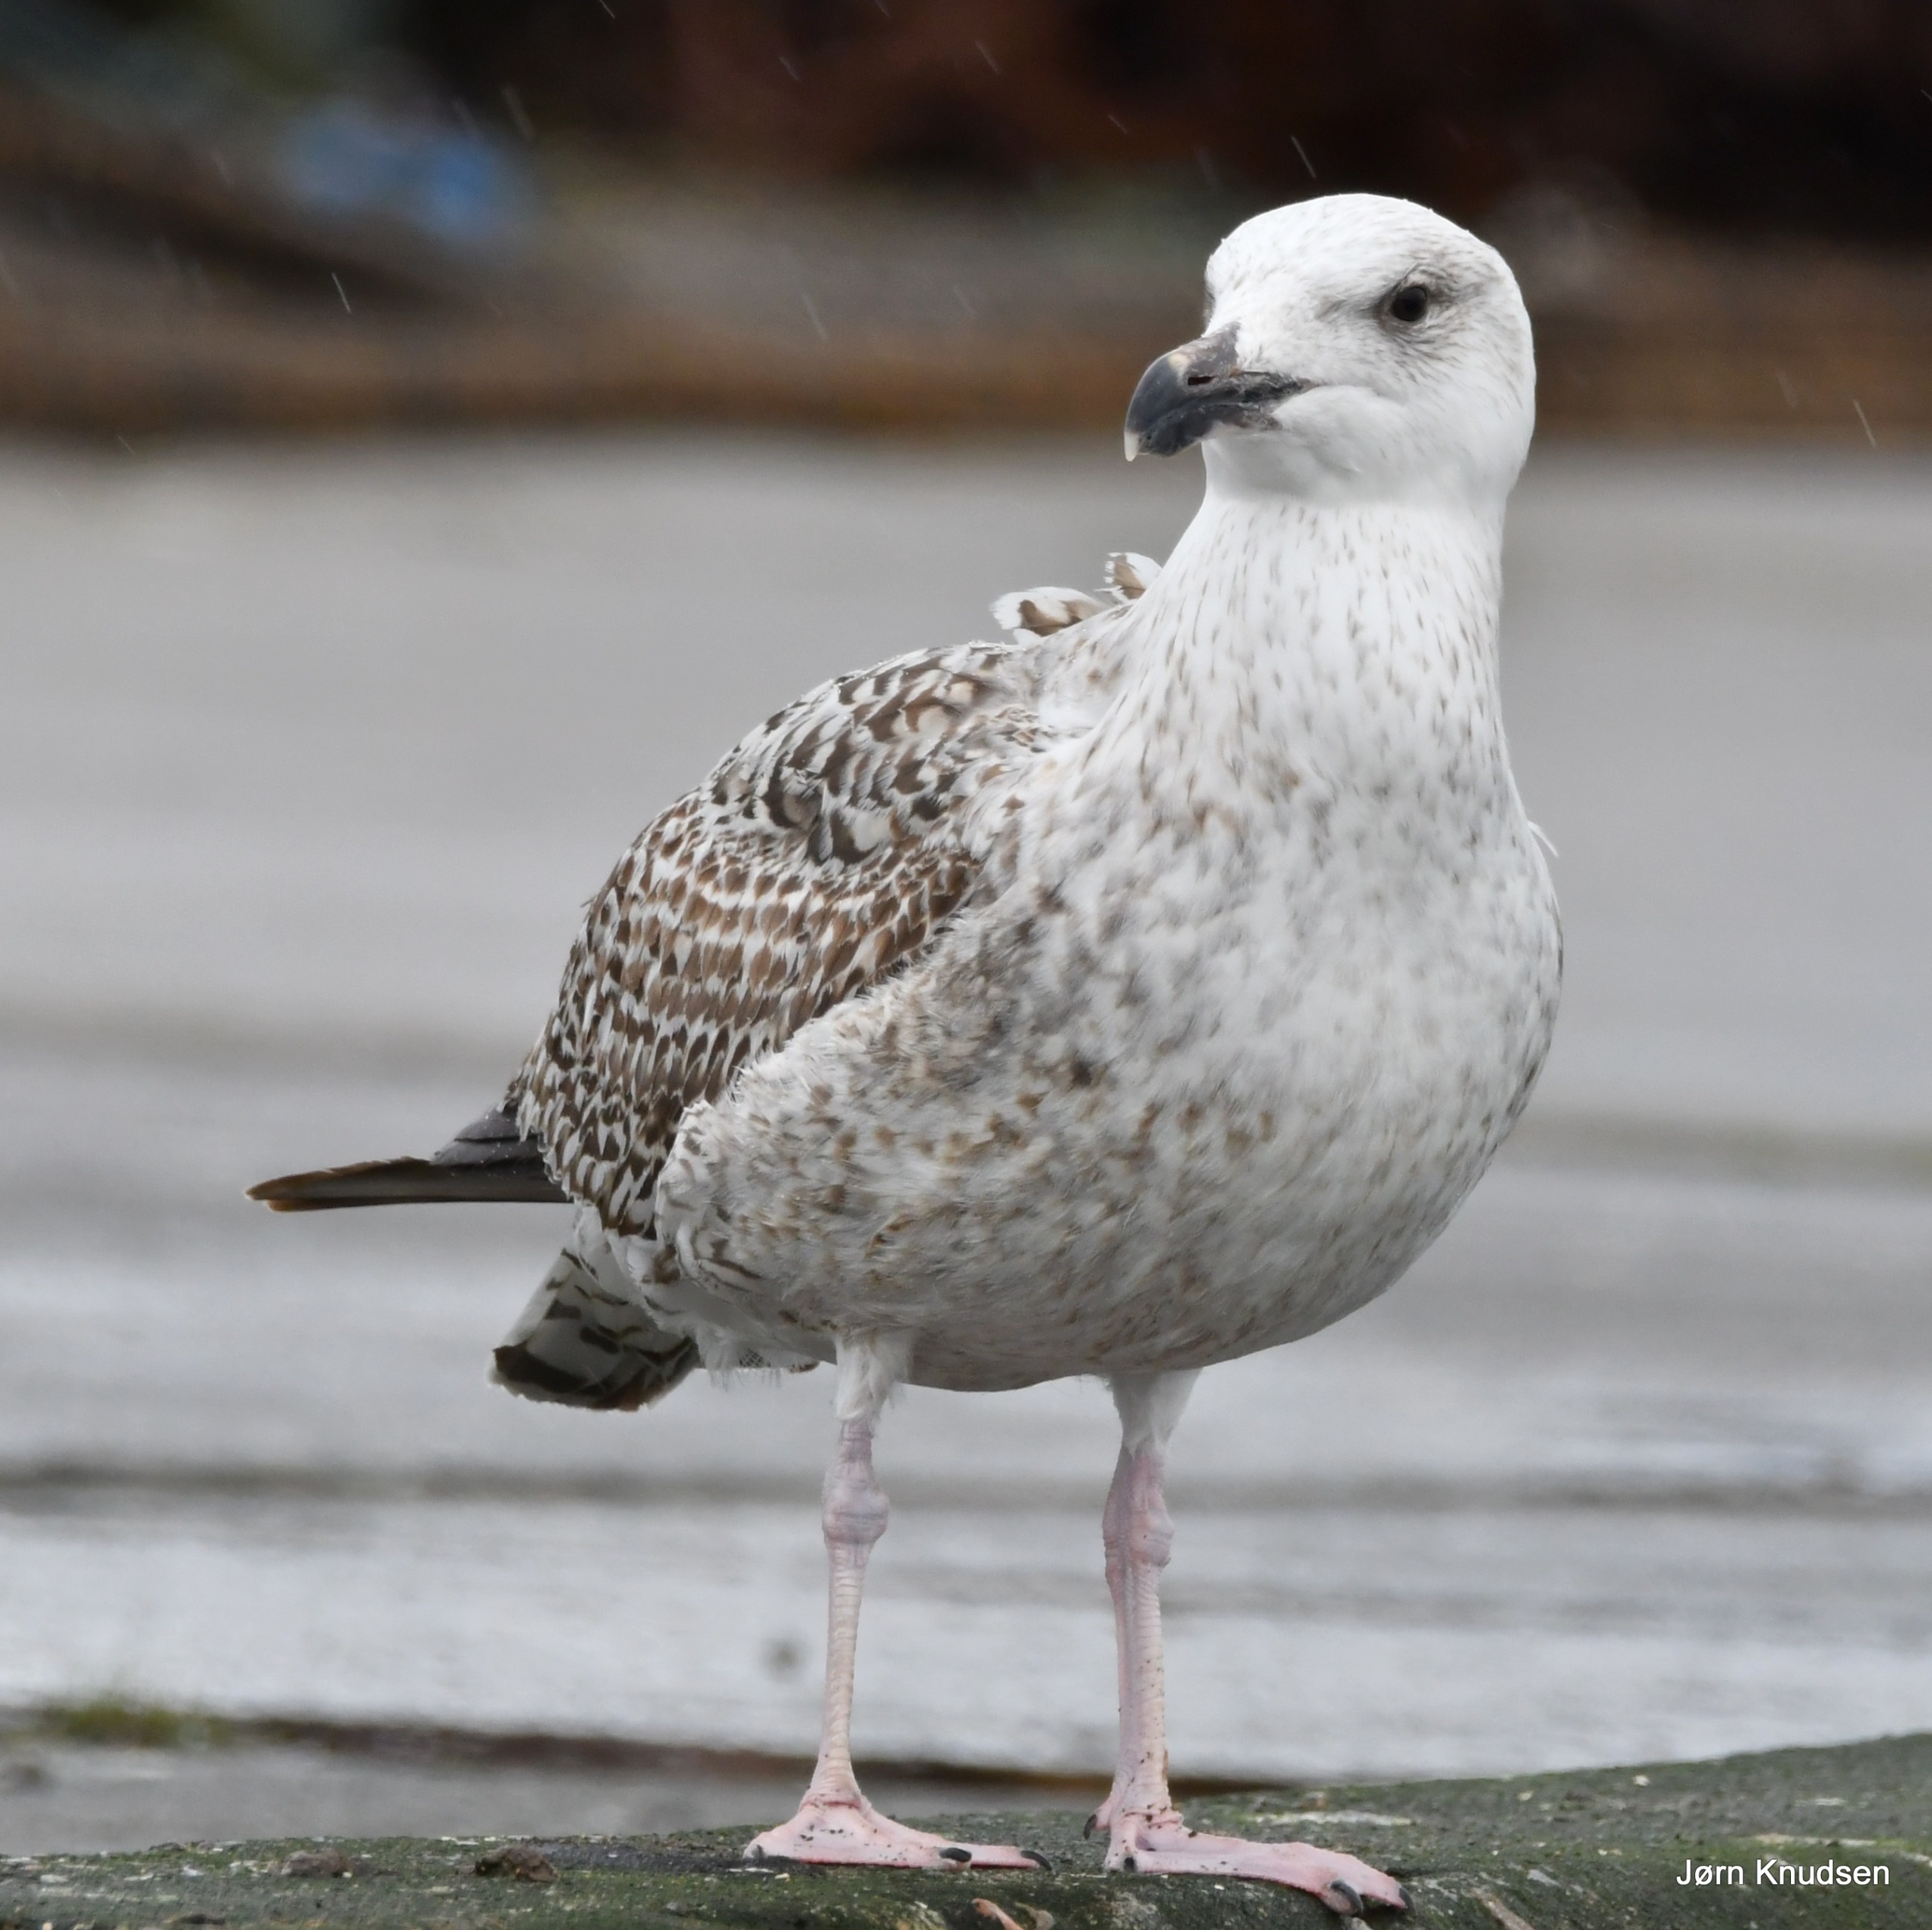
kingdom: Animalia
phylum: Chordata
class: Aves
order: Charadriiformes
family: Laridae
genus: Larus
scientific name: Larus argentatus
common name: Sølvmåge
